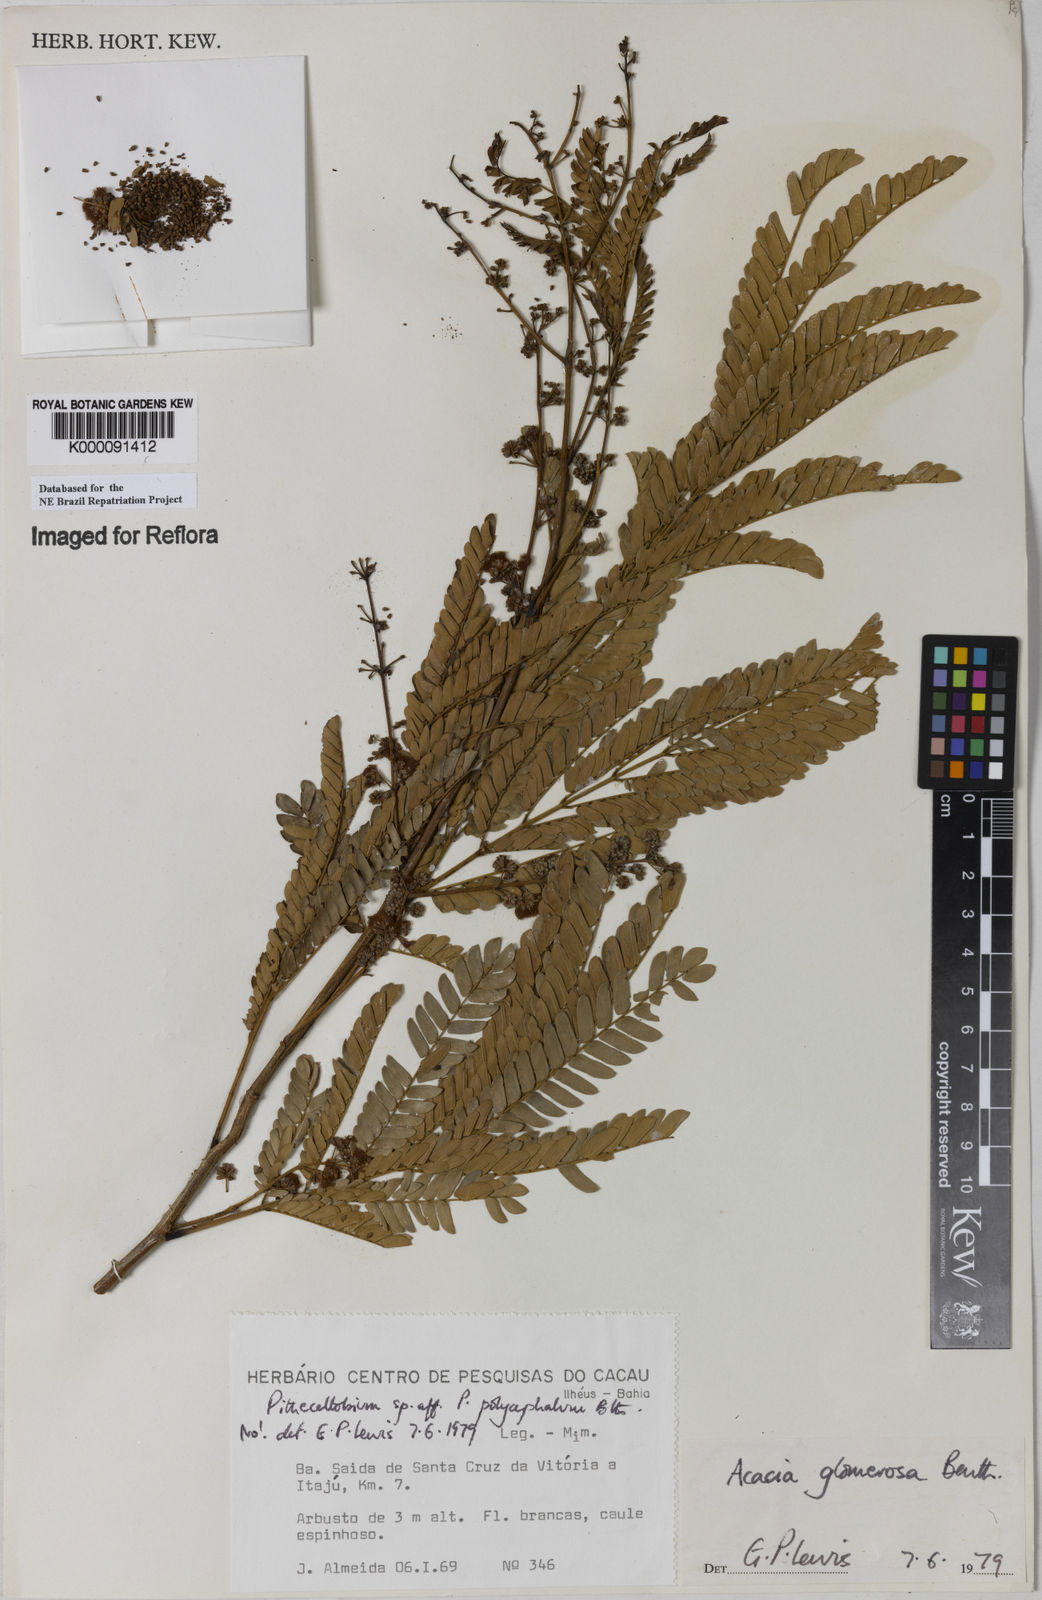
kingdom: Plantae
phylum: Tracheophyta
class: Magnoliopsida
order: Fabales
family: Fabaceae
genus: Senegalia
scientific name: Senegalia polyphylla
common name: White-tamarind
